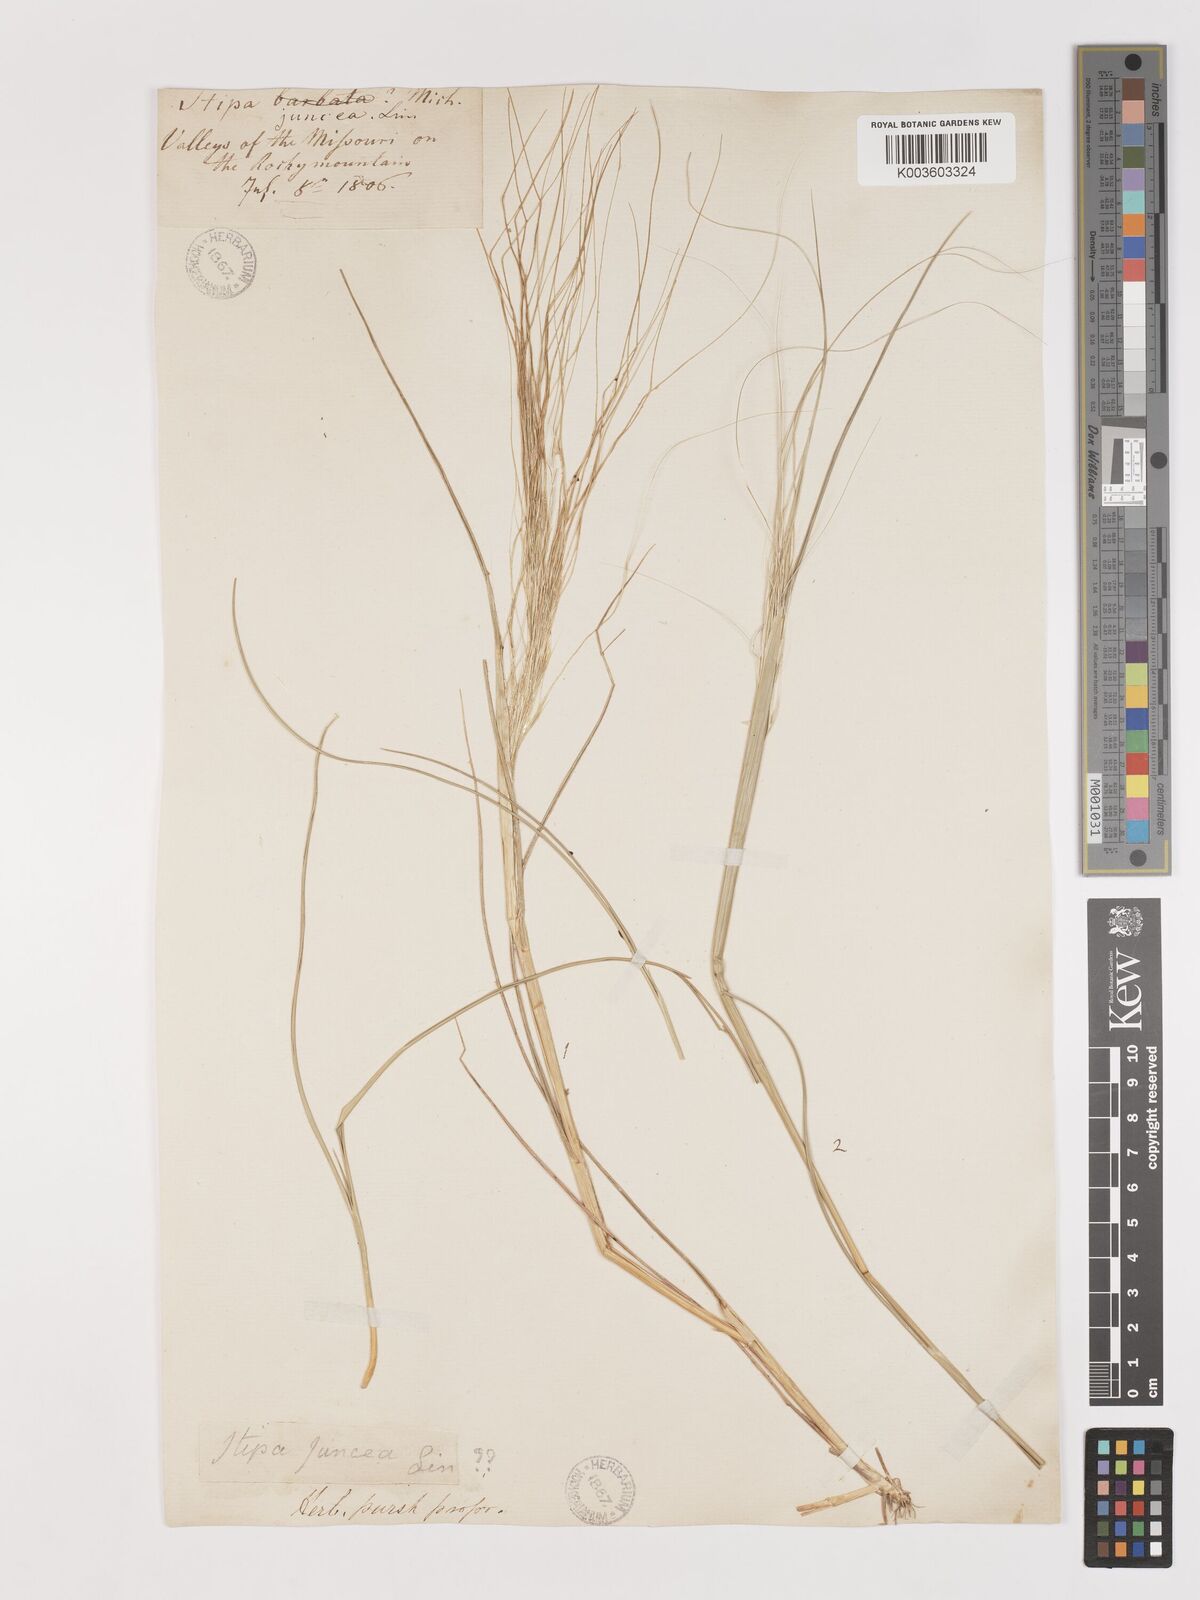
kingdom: Plantae
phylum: Tracheophyta
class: Liliopsida
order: Poales
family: Poaceae
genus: Hesperostipa
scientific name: Hesperostipa comata
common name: Needle-and-thread grass
